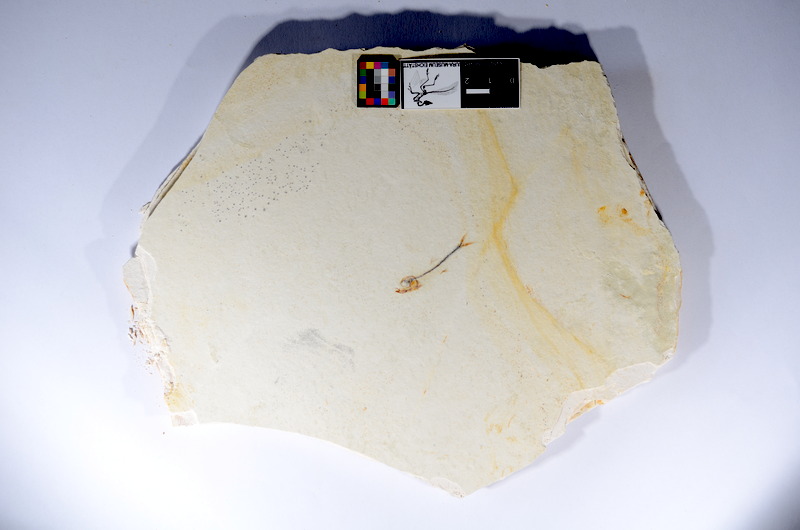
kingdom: Animalia
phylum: Chordata
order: Salmoniformes
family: Orthogonikleithridae
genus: Orthogonikleithrus
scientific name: Orthogonikleithrus hoelli
